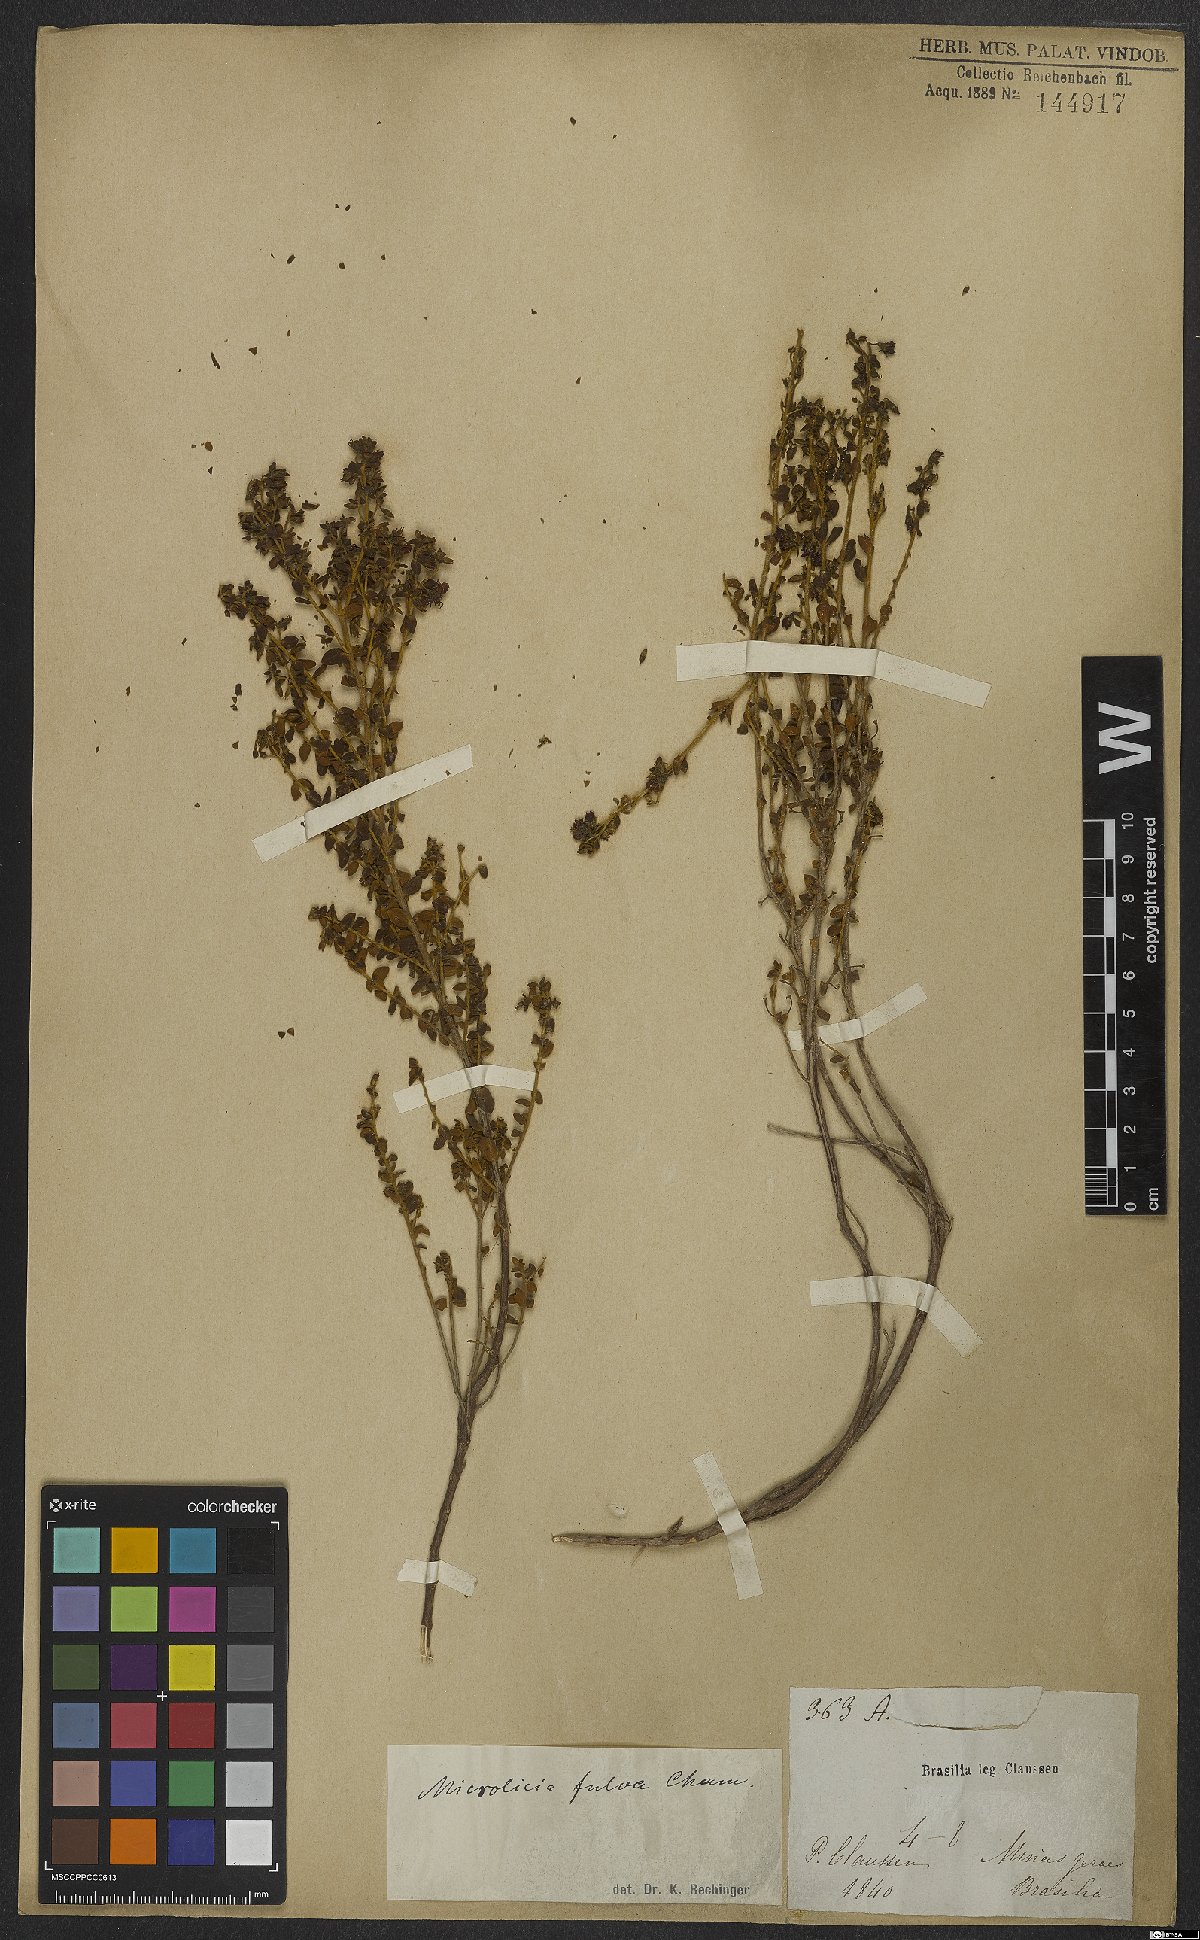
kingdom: Plantae
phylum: Tracheophyta
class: Magnoliopsida
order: Myrtales
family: Melastomataceae
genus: Microlicia
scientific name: Microlicia fulva
